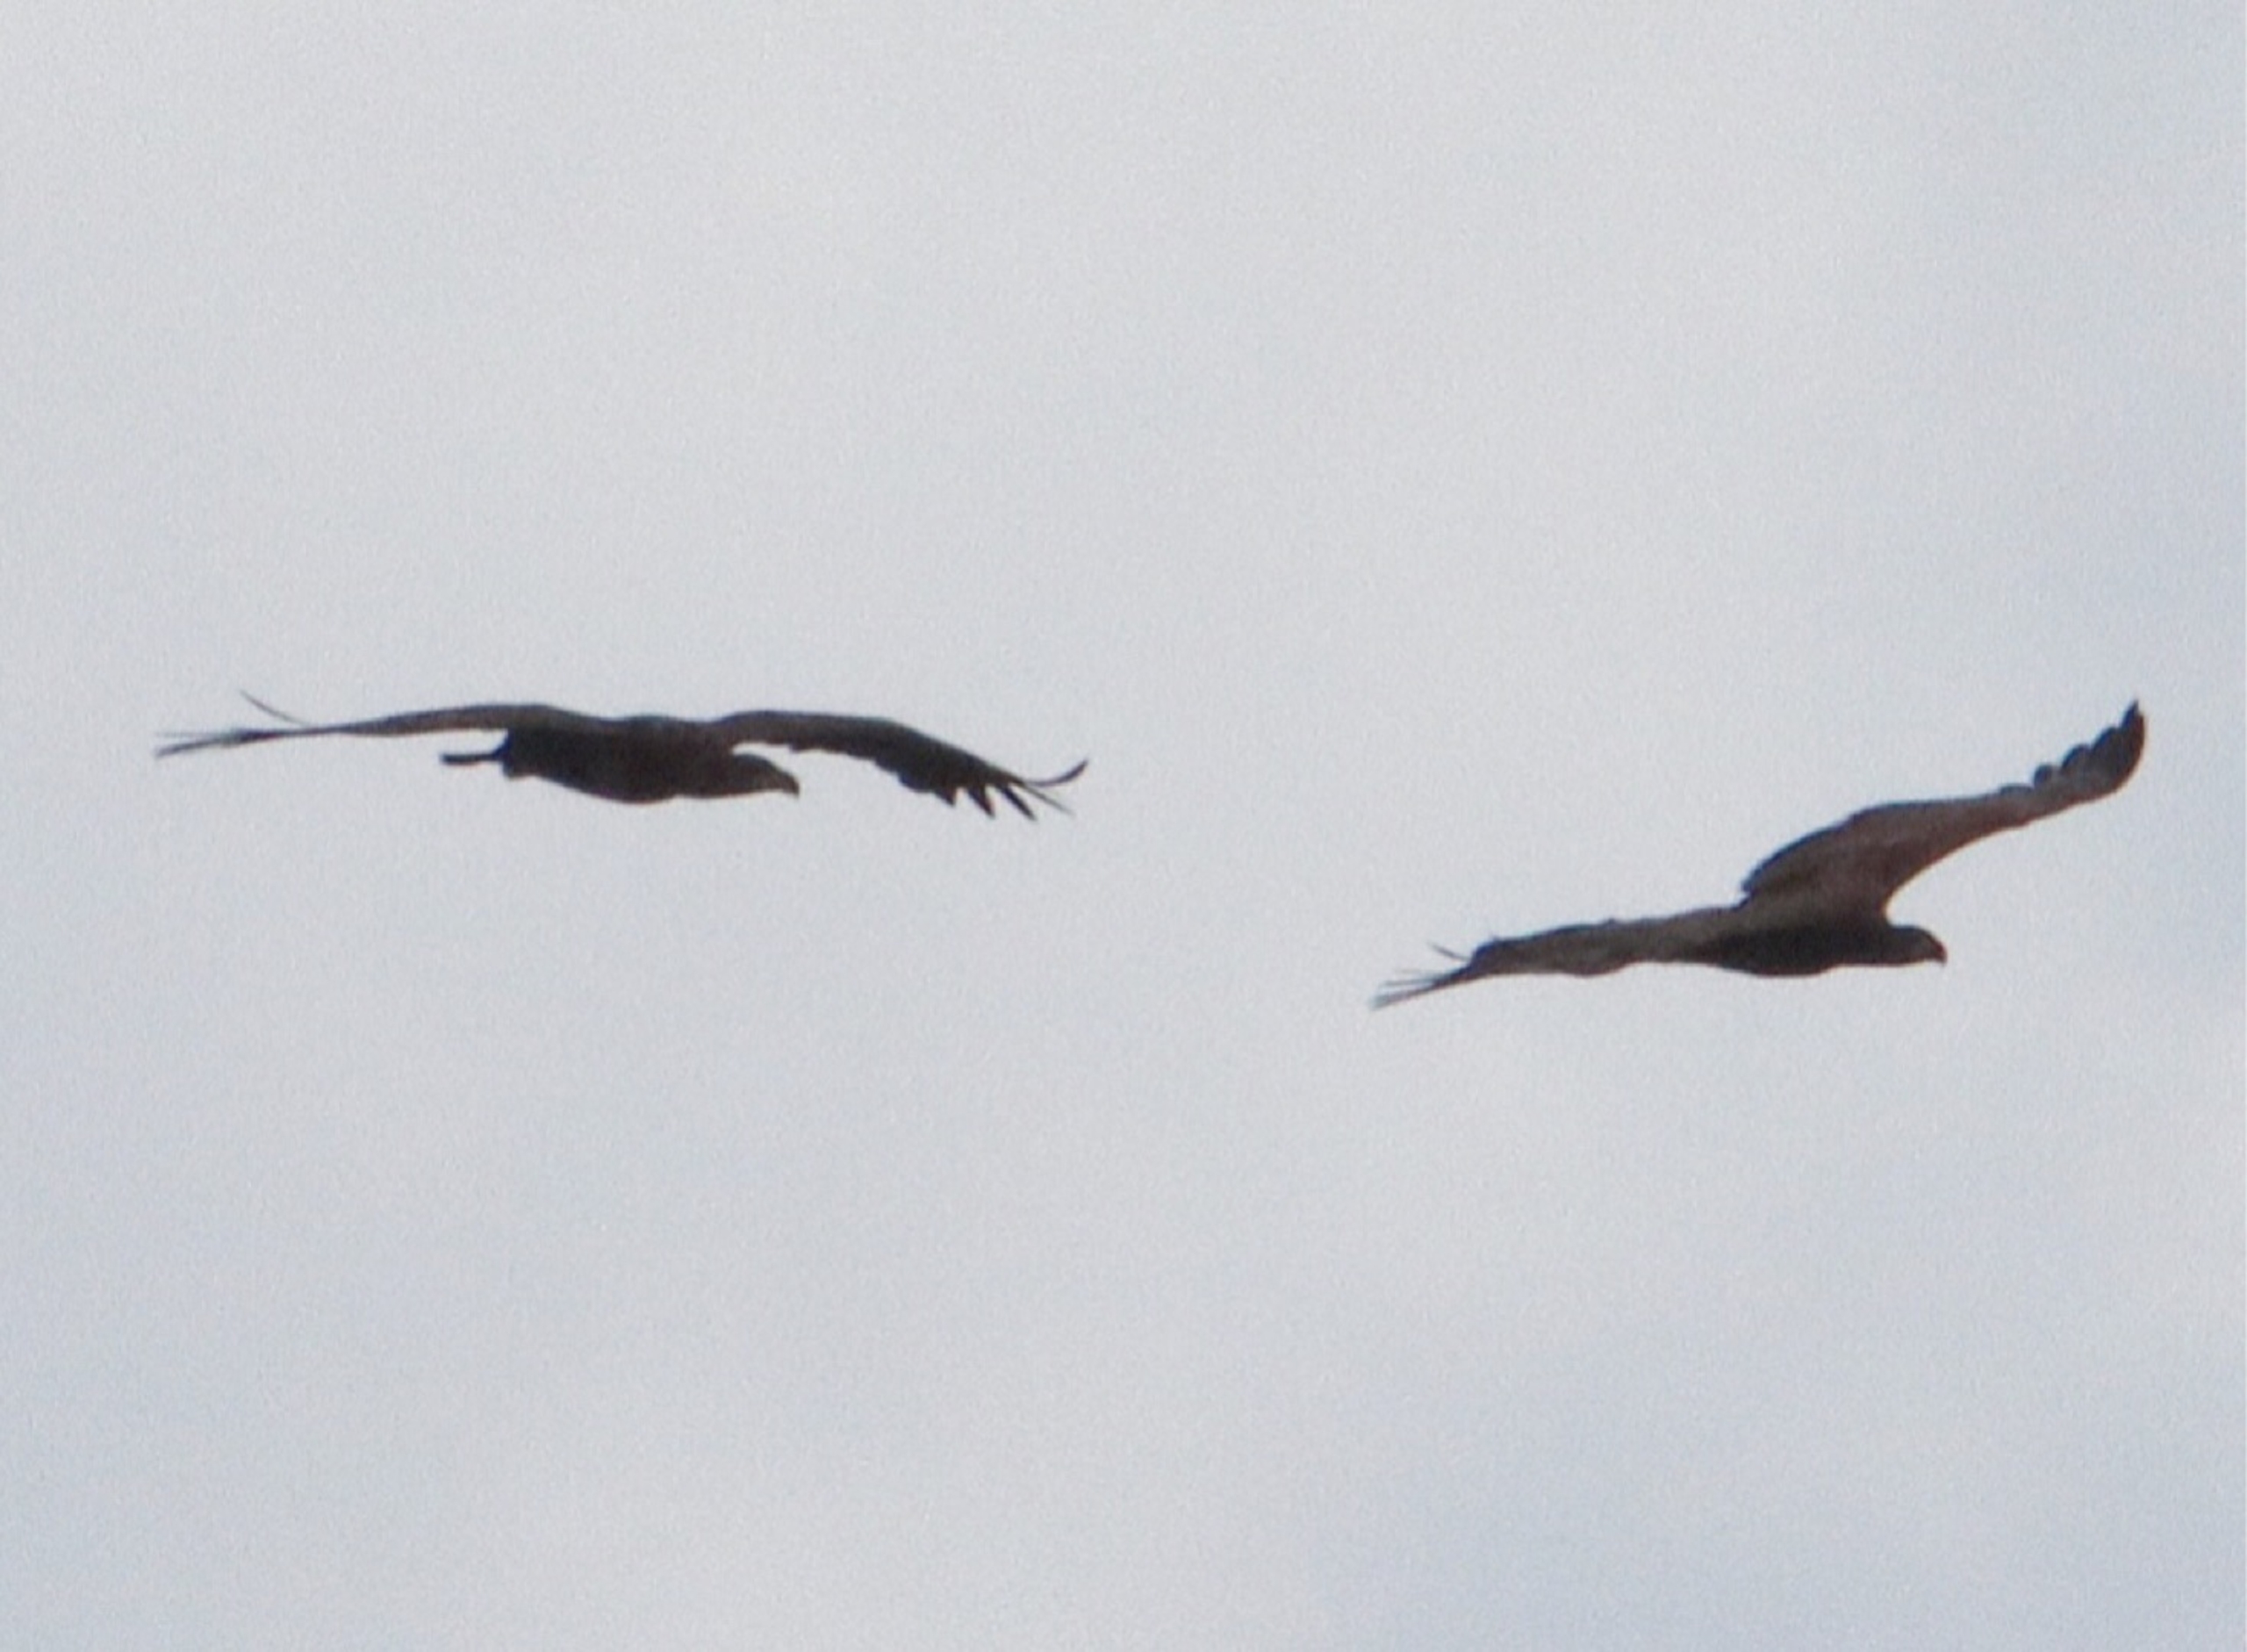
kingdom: Animalia
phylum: Chordata
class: Aves
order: Accipitriformes
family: Accipitridae
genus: Haliaeetus
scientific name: Haliaeetus albicilla
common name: Havørn
